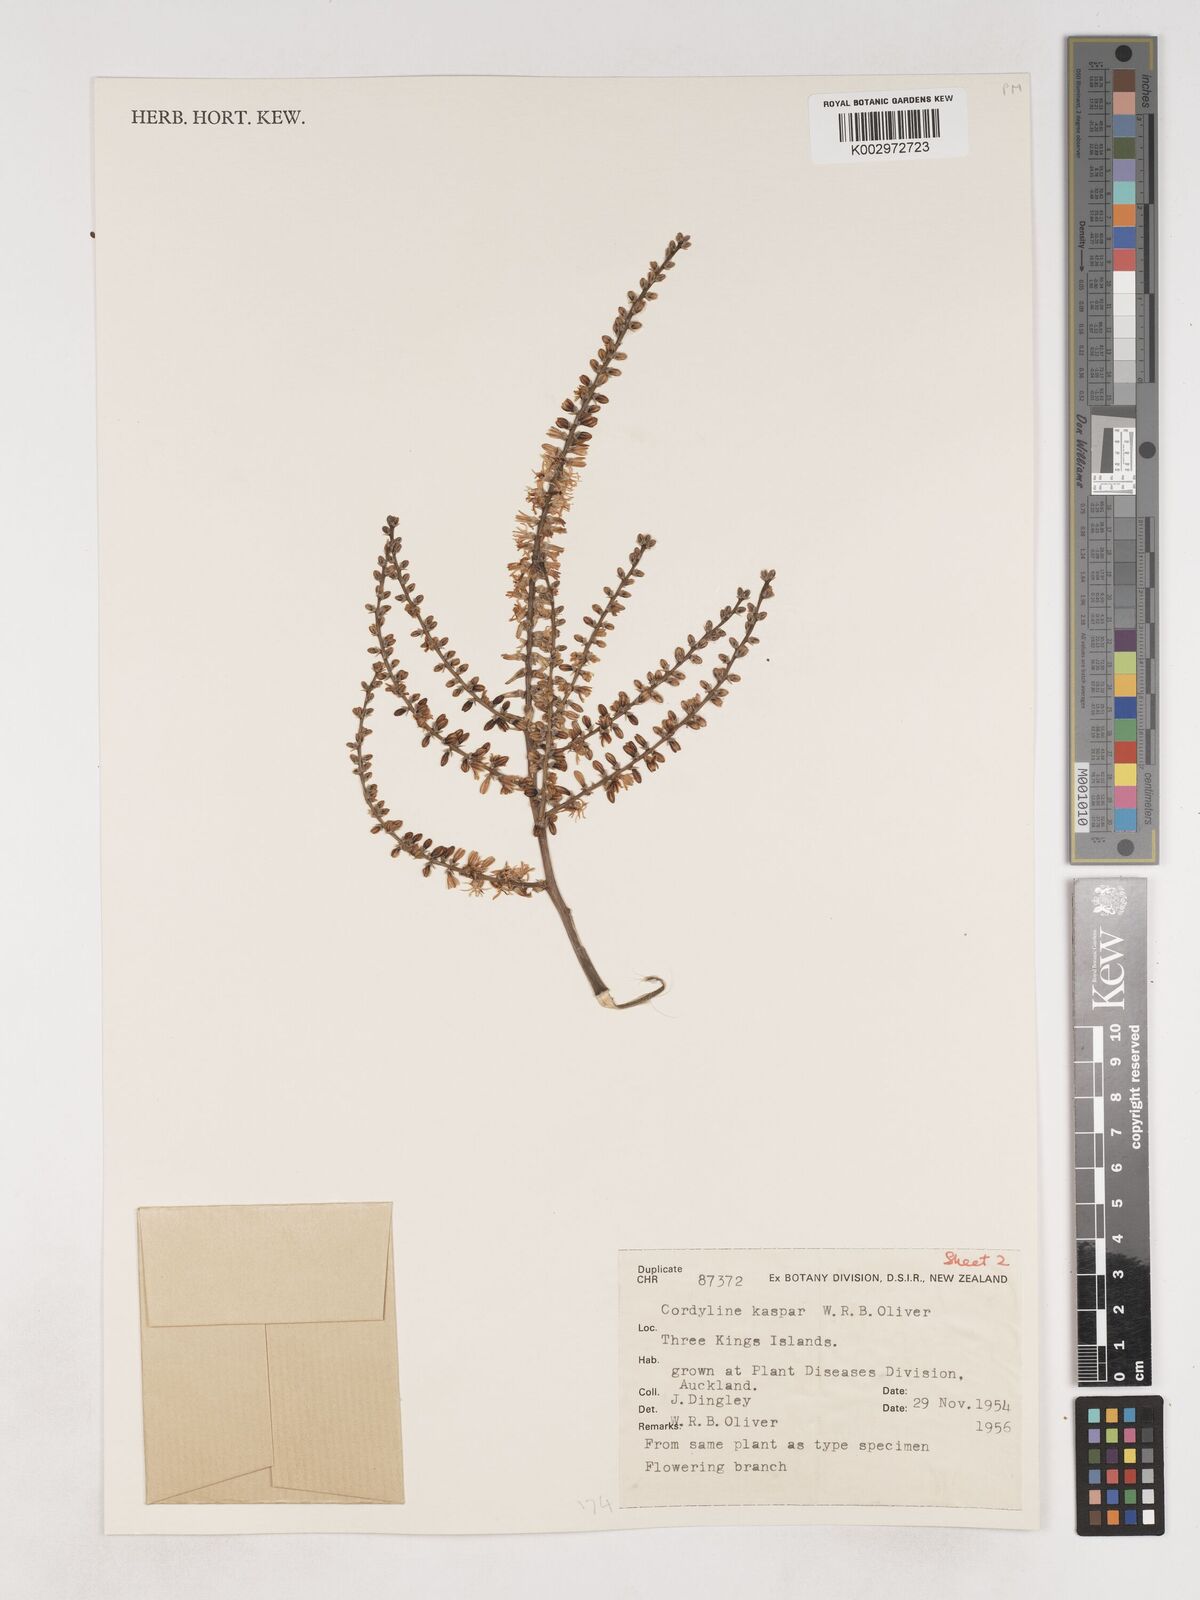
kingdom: Plantae
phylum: Tracheophyta
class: Liliopsida
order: Asparagales
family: Asparagaceae
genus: Cordyline
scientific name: Cordyline obtecta
